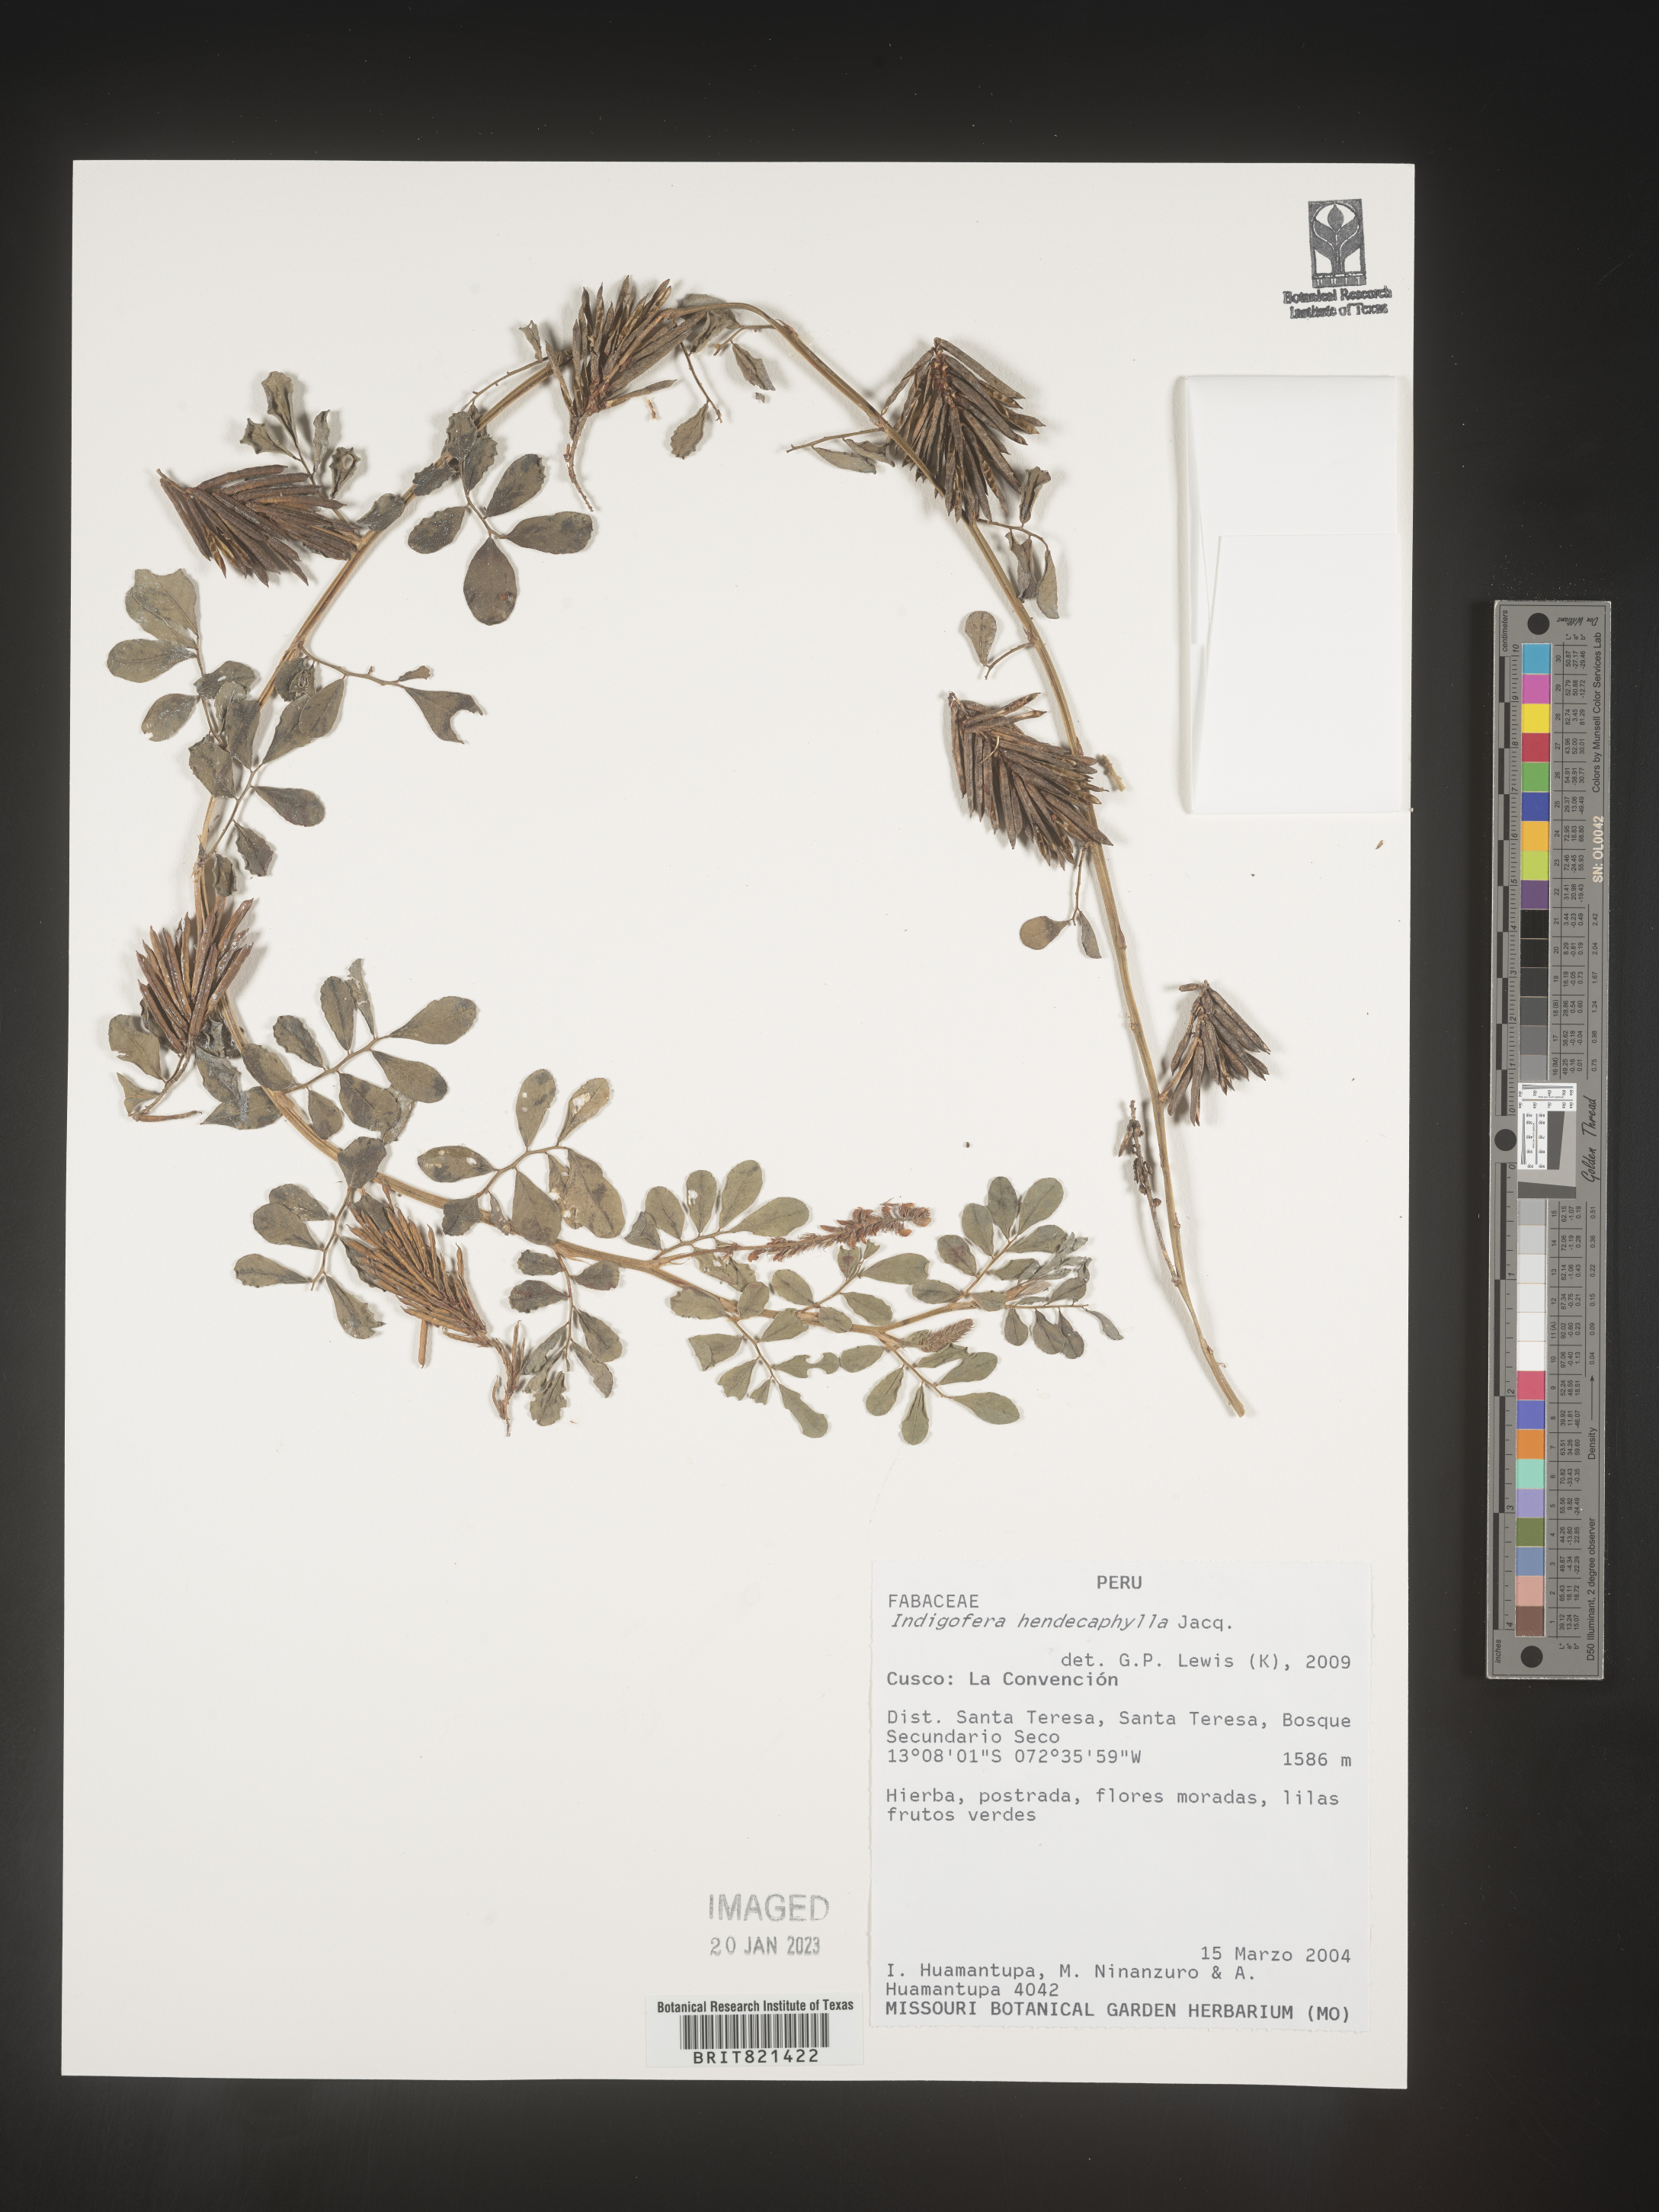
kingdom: Plantae
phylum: Tracheophyta
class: Magnoliopsida
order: Fabales
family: Fabaceae
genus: Indigofera
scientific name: Indigofera
